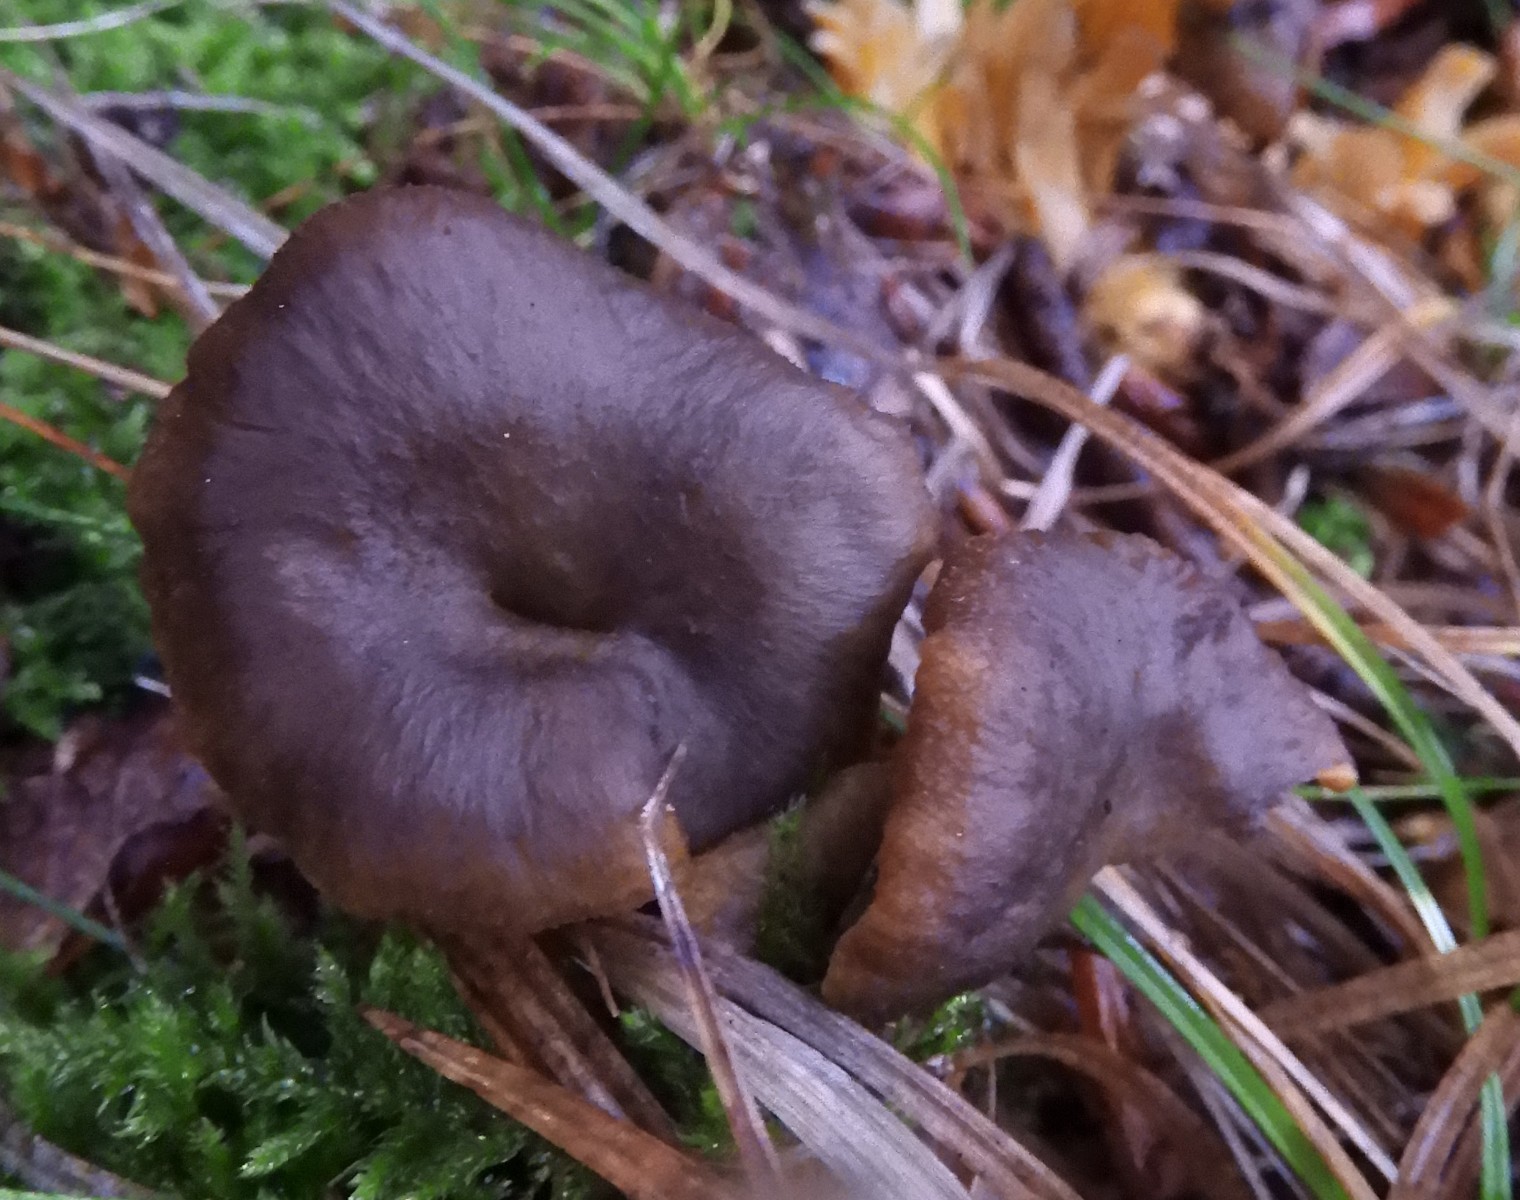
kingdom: Fungi
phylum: Basidiomycota
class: Agaricomycetes
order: Cantharellales
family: Hydnaceae
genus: Craterellus
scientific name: Craterellus tubaeformis
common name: tragt-kantarel
